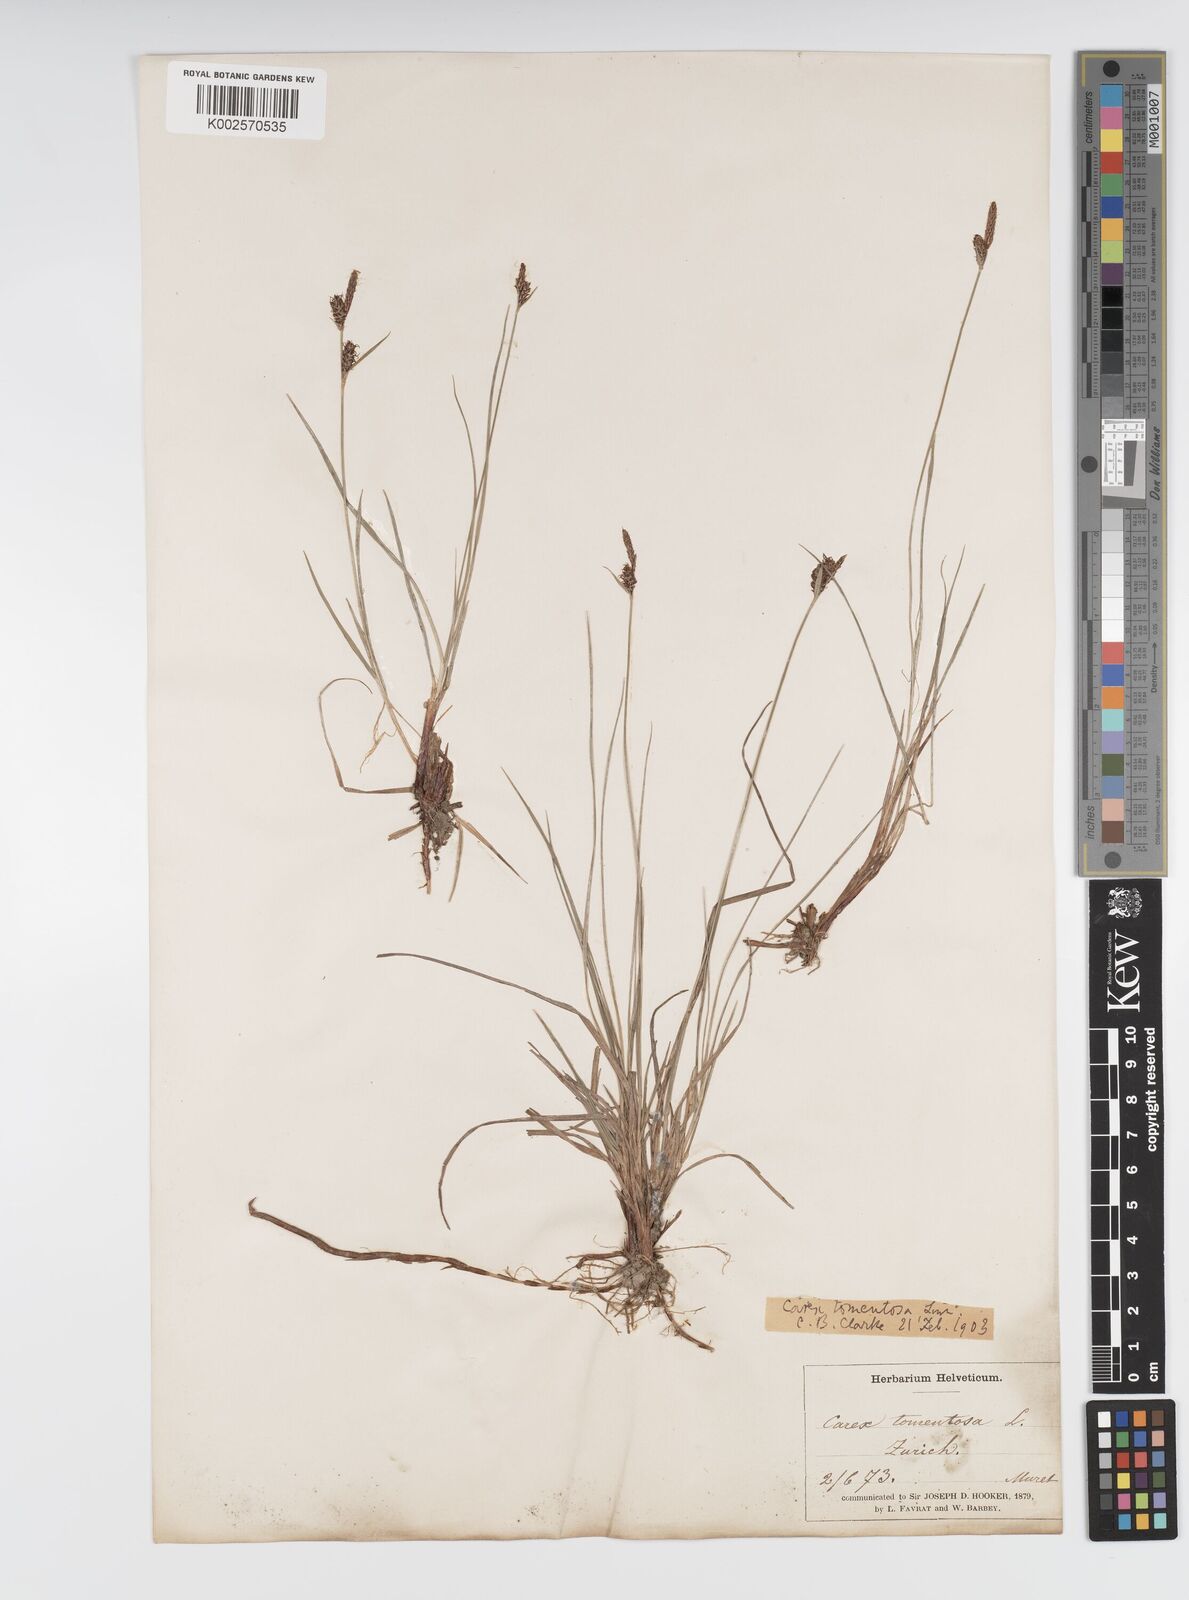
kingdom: Plantae
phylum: Tracheophyta
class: Liliopsida
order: Poales
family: Cyperaceae
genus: Carex
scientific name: Carex montana
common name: Soft-leaved sedge
